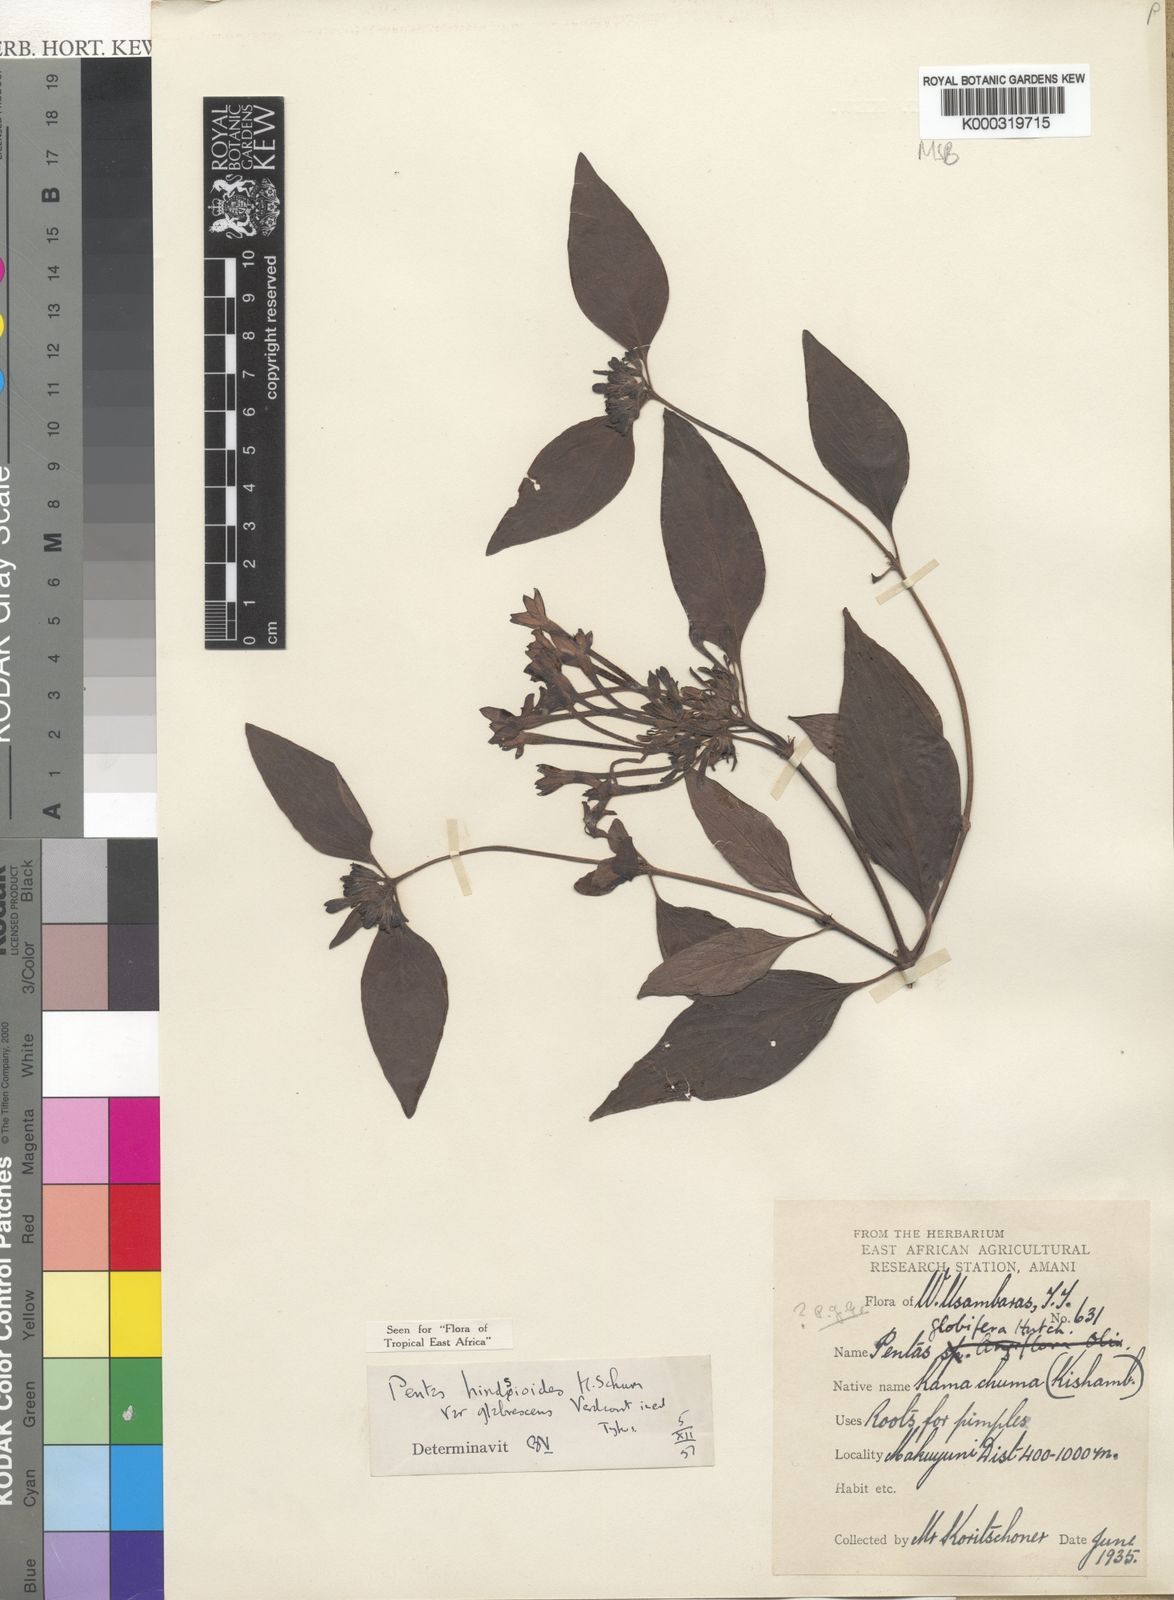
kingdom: Plantae
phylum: Tracheophyta
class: Magnoliopsida
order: Gentianales
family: Rubiaceae
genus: Chamaepentas
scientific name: Chamaepentas hindsioides
